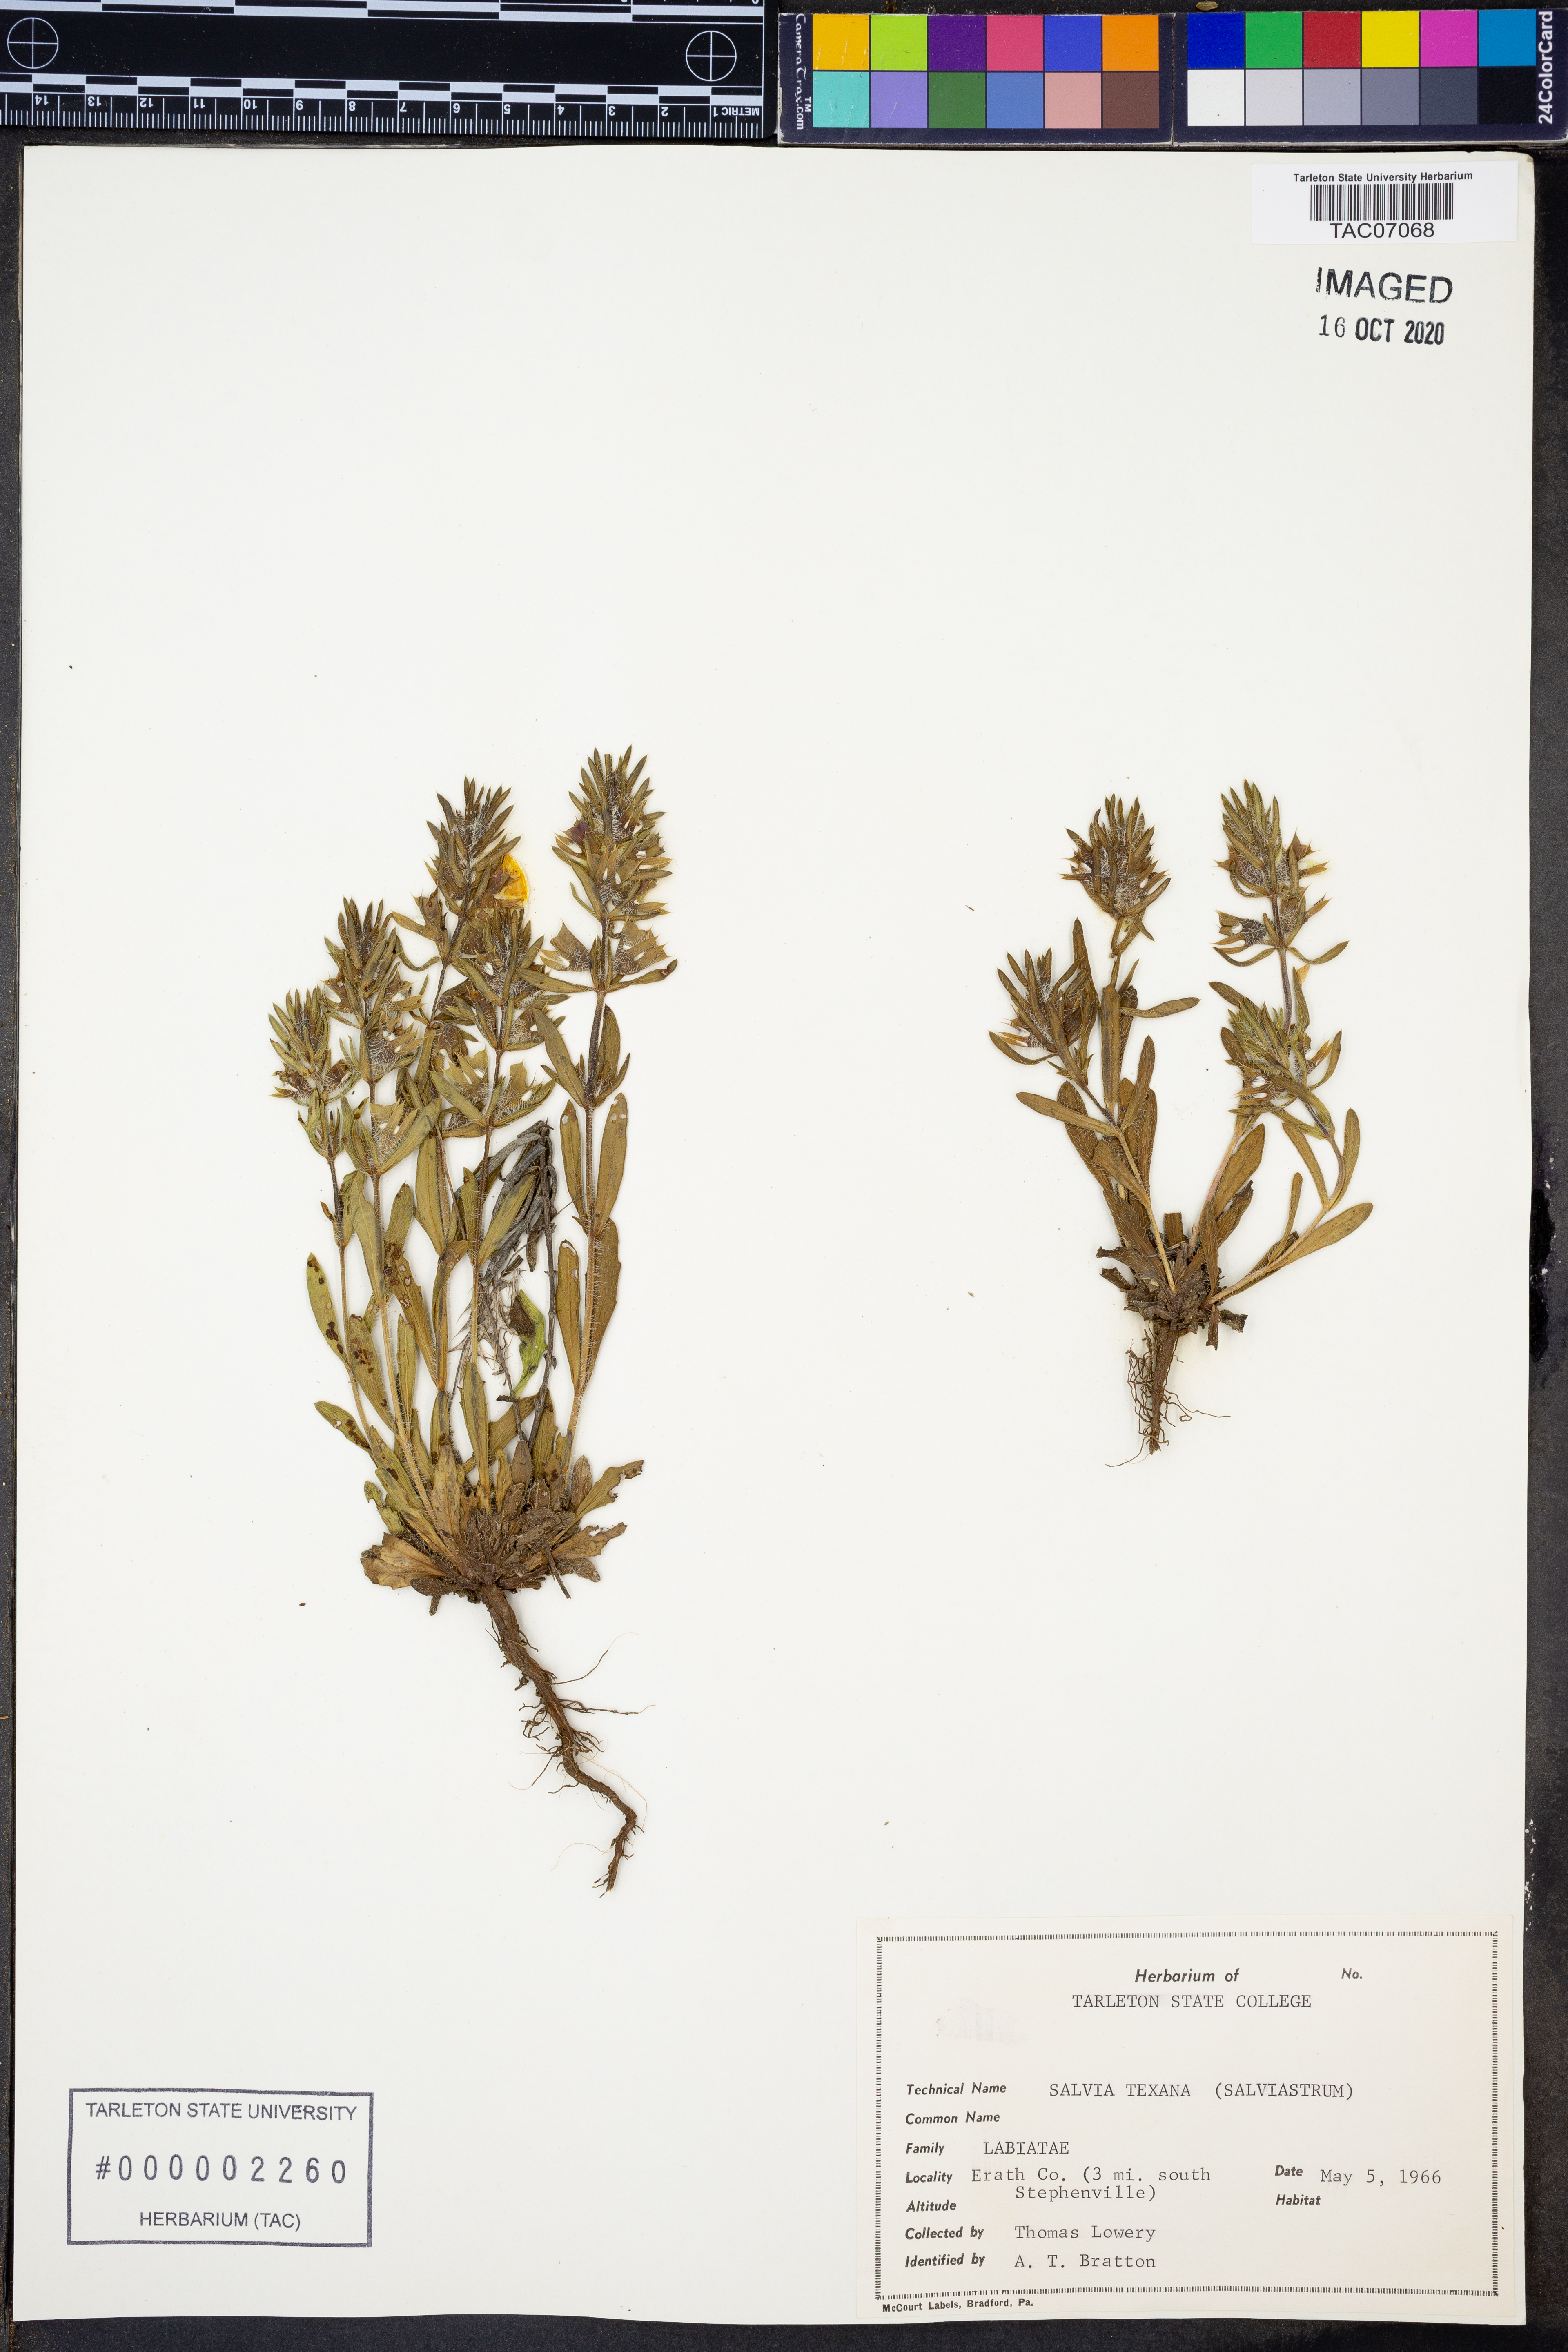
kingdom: Plantae
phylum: Tracheophyta
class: Magnoliopsida
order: Lamiales
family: Lamiaceae
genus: Salvia
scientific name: Salvia texana
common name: Texas sage
